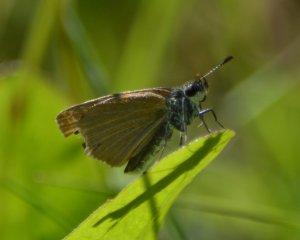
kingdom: Animalia
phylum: Arthropoda
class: Insecta
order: Lepidoptera
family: Hesperiidae
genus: Ancyloxypha
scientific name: Ancyloxypha numitor
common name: Least Skipper
